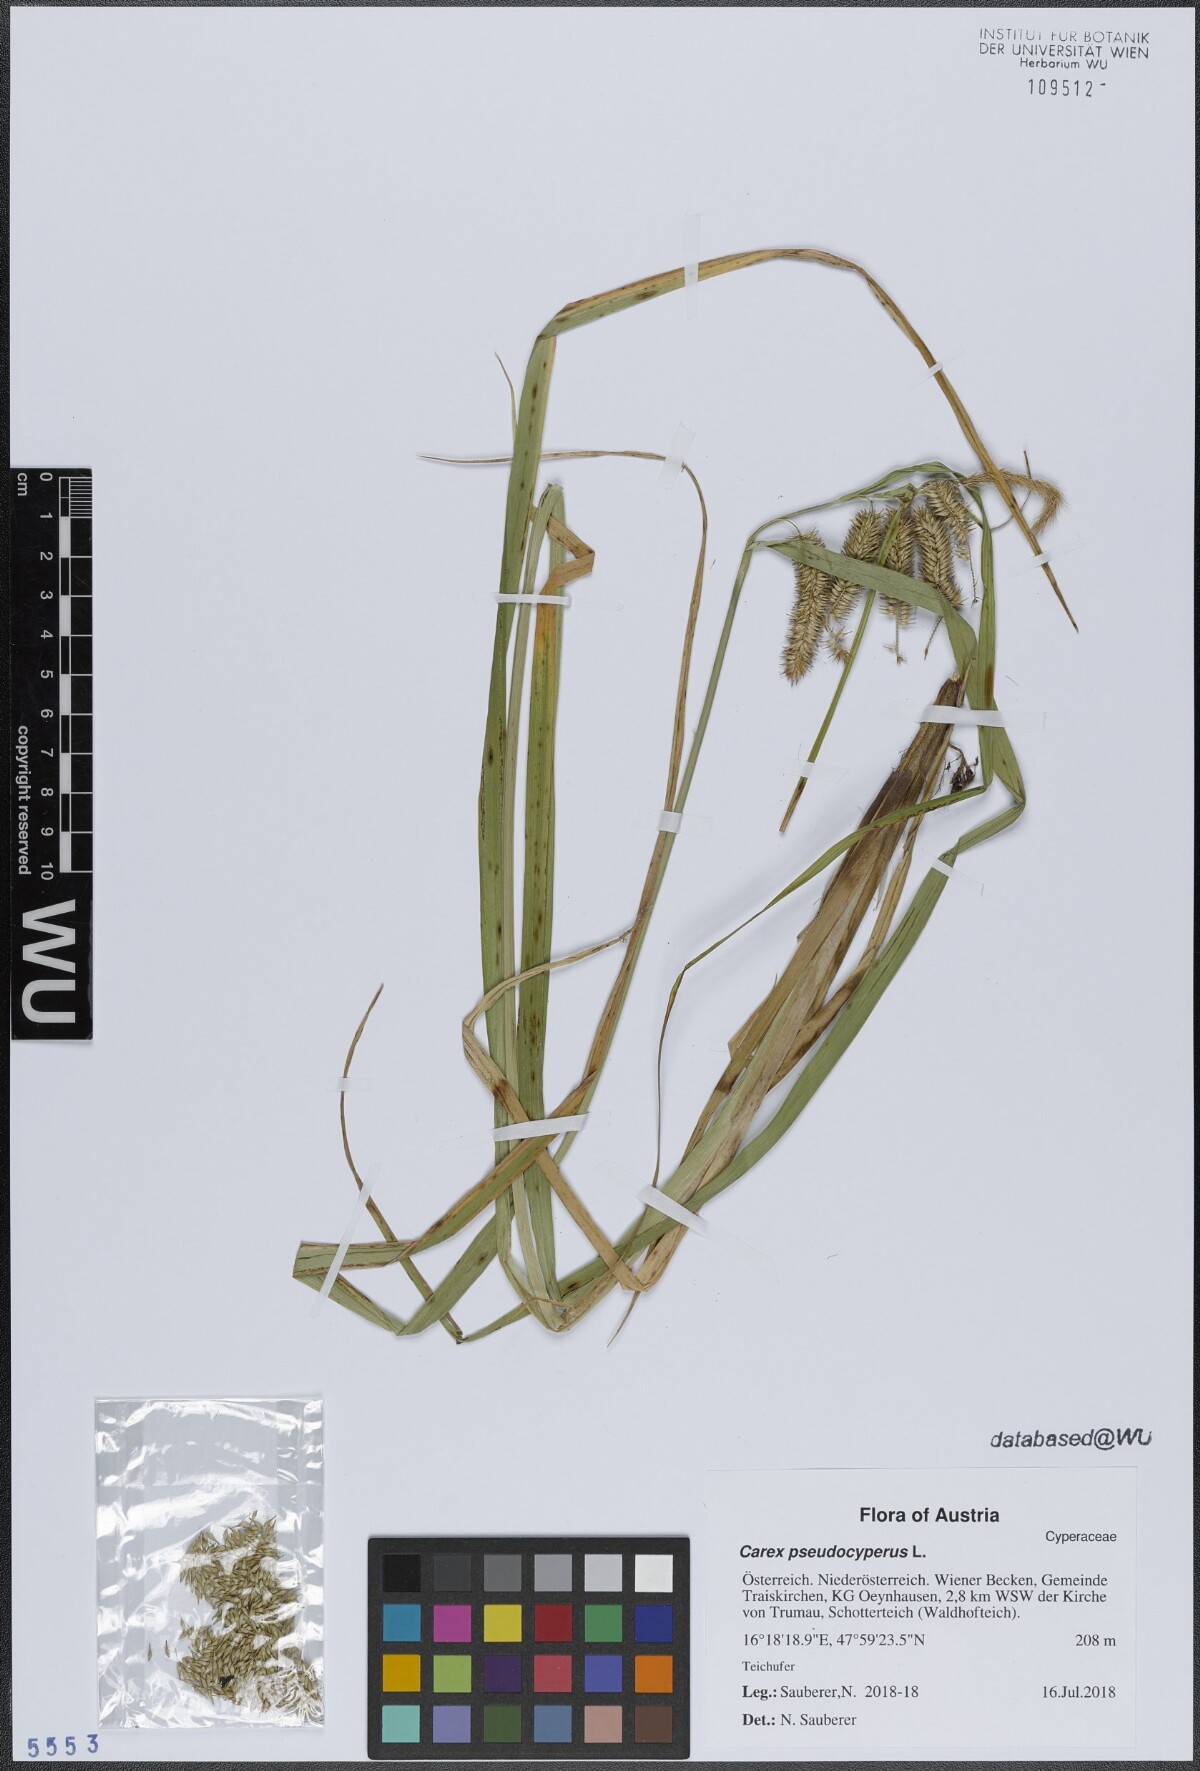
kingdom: Plantae
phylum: Tracheophyta
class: Liliopsida
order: Poales
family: Cyperaceae
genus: Carex
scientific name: Carex pseudocyperus
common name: Cyperus sedge
